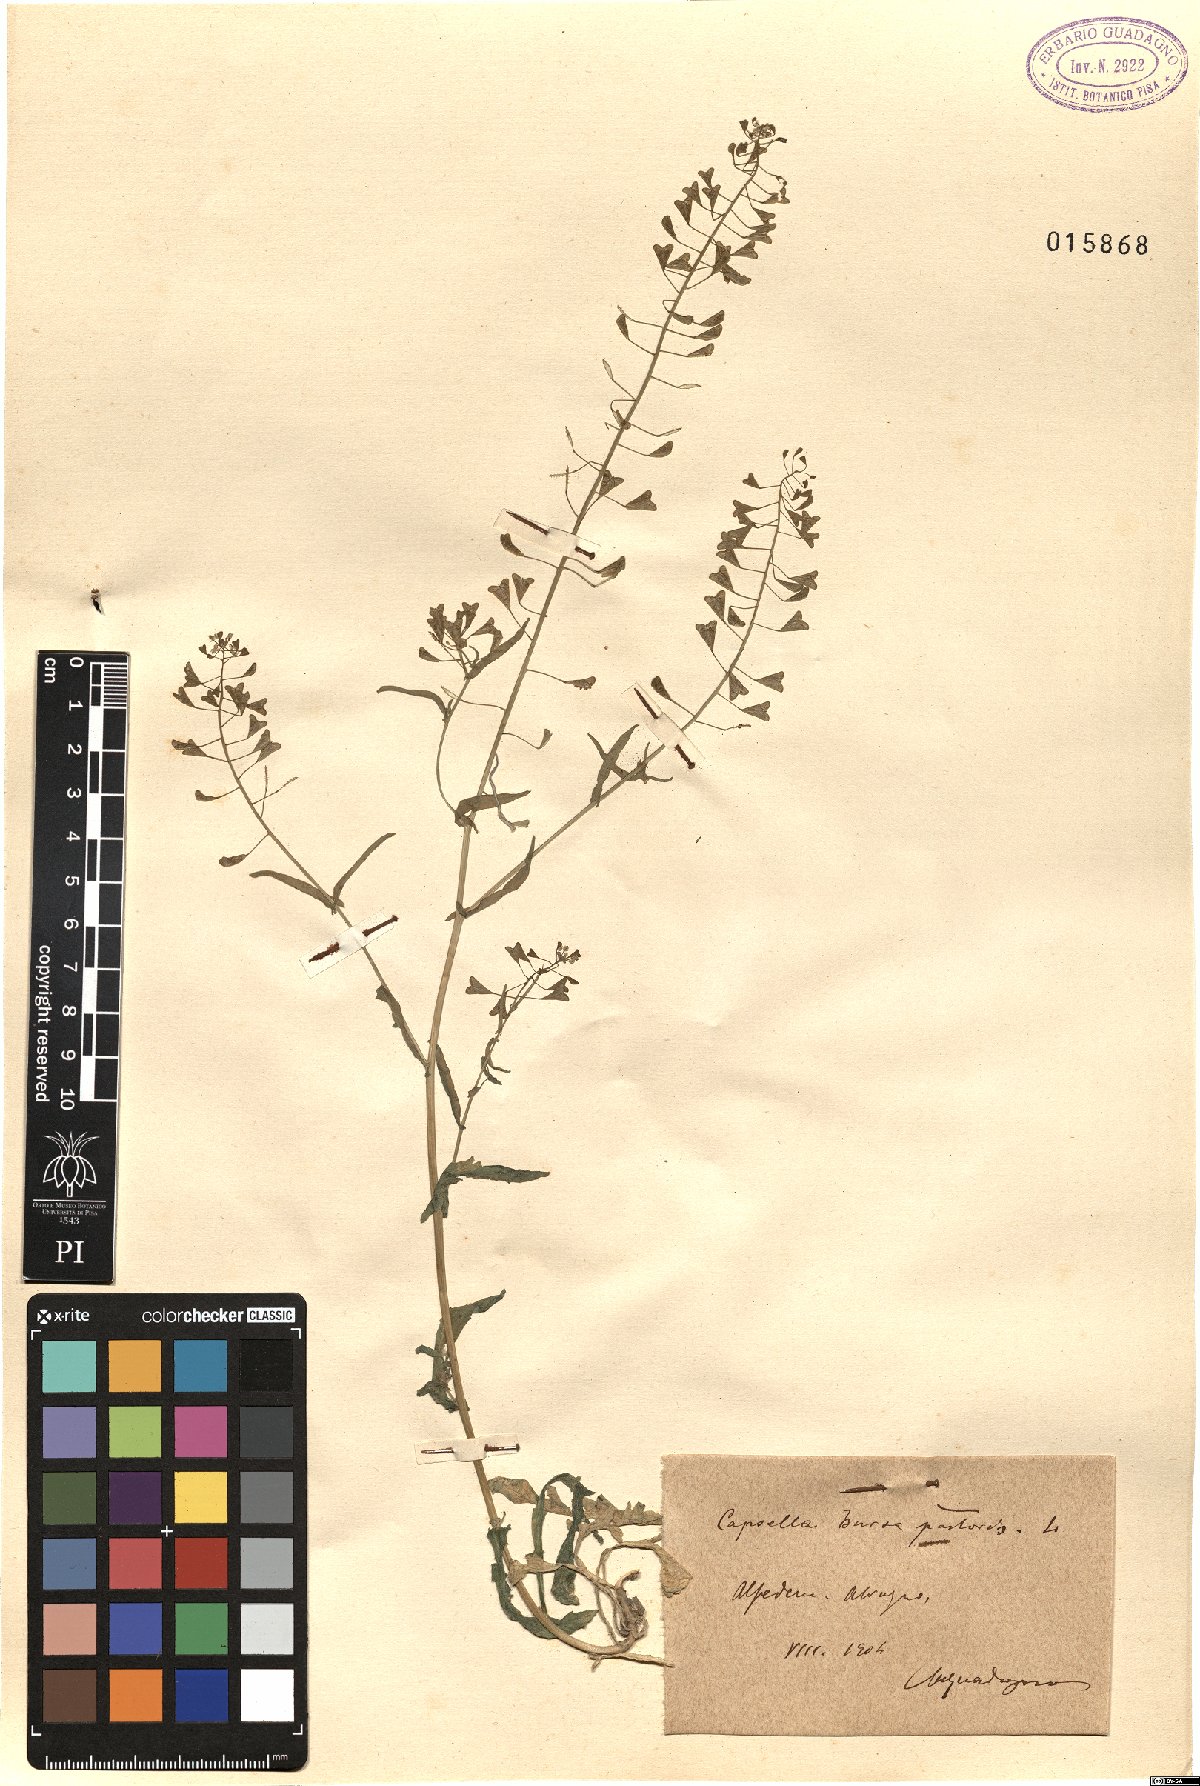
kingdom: Plantae
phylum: Tracheophyta
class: Magnoliopsida
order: Brassicales
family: Brassicaceae
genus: Capsella
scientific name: Capsella bursa-pastoris
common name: Shepherd's purse
